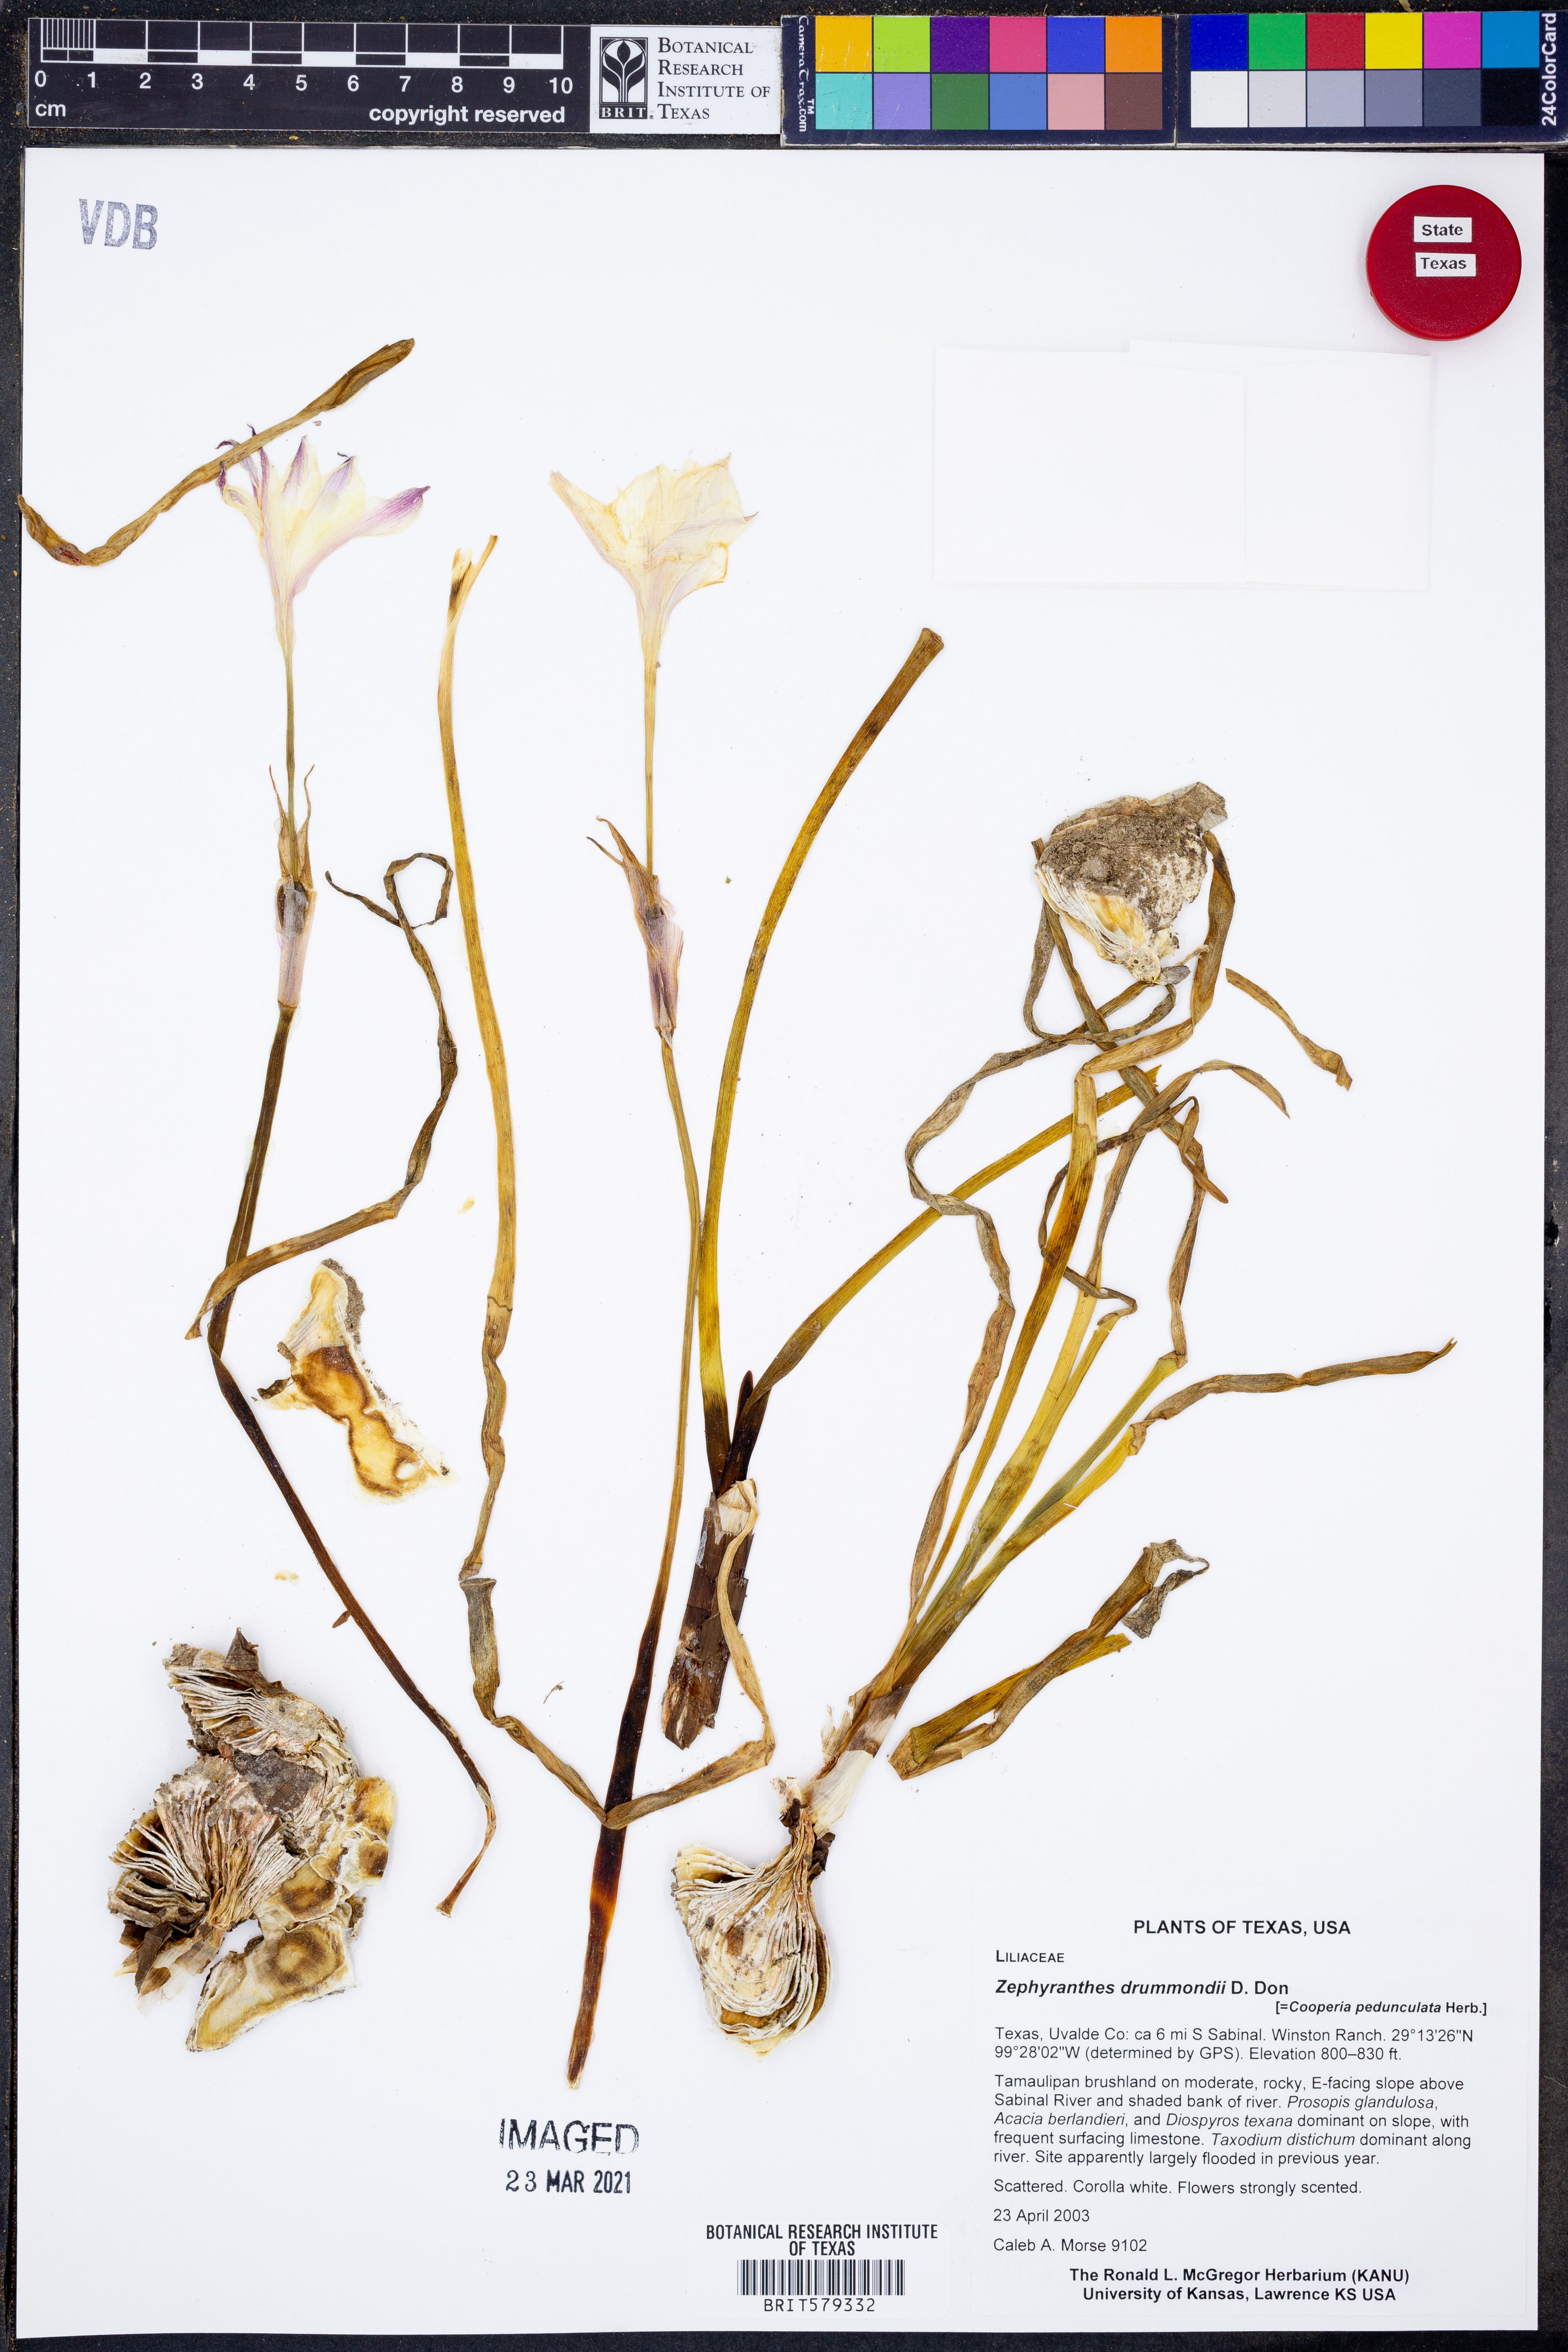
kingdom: Plantae
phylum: Tracheophyta
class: Liliopsida
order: Asparagales
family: Amaryllidaceae
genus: Zephyranthes
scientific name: Zephyranthes drummondii
